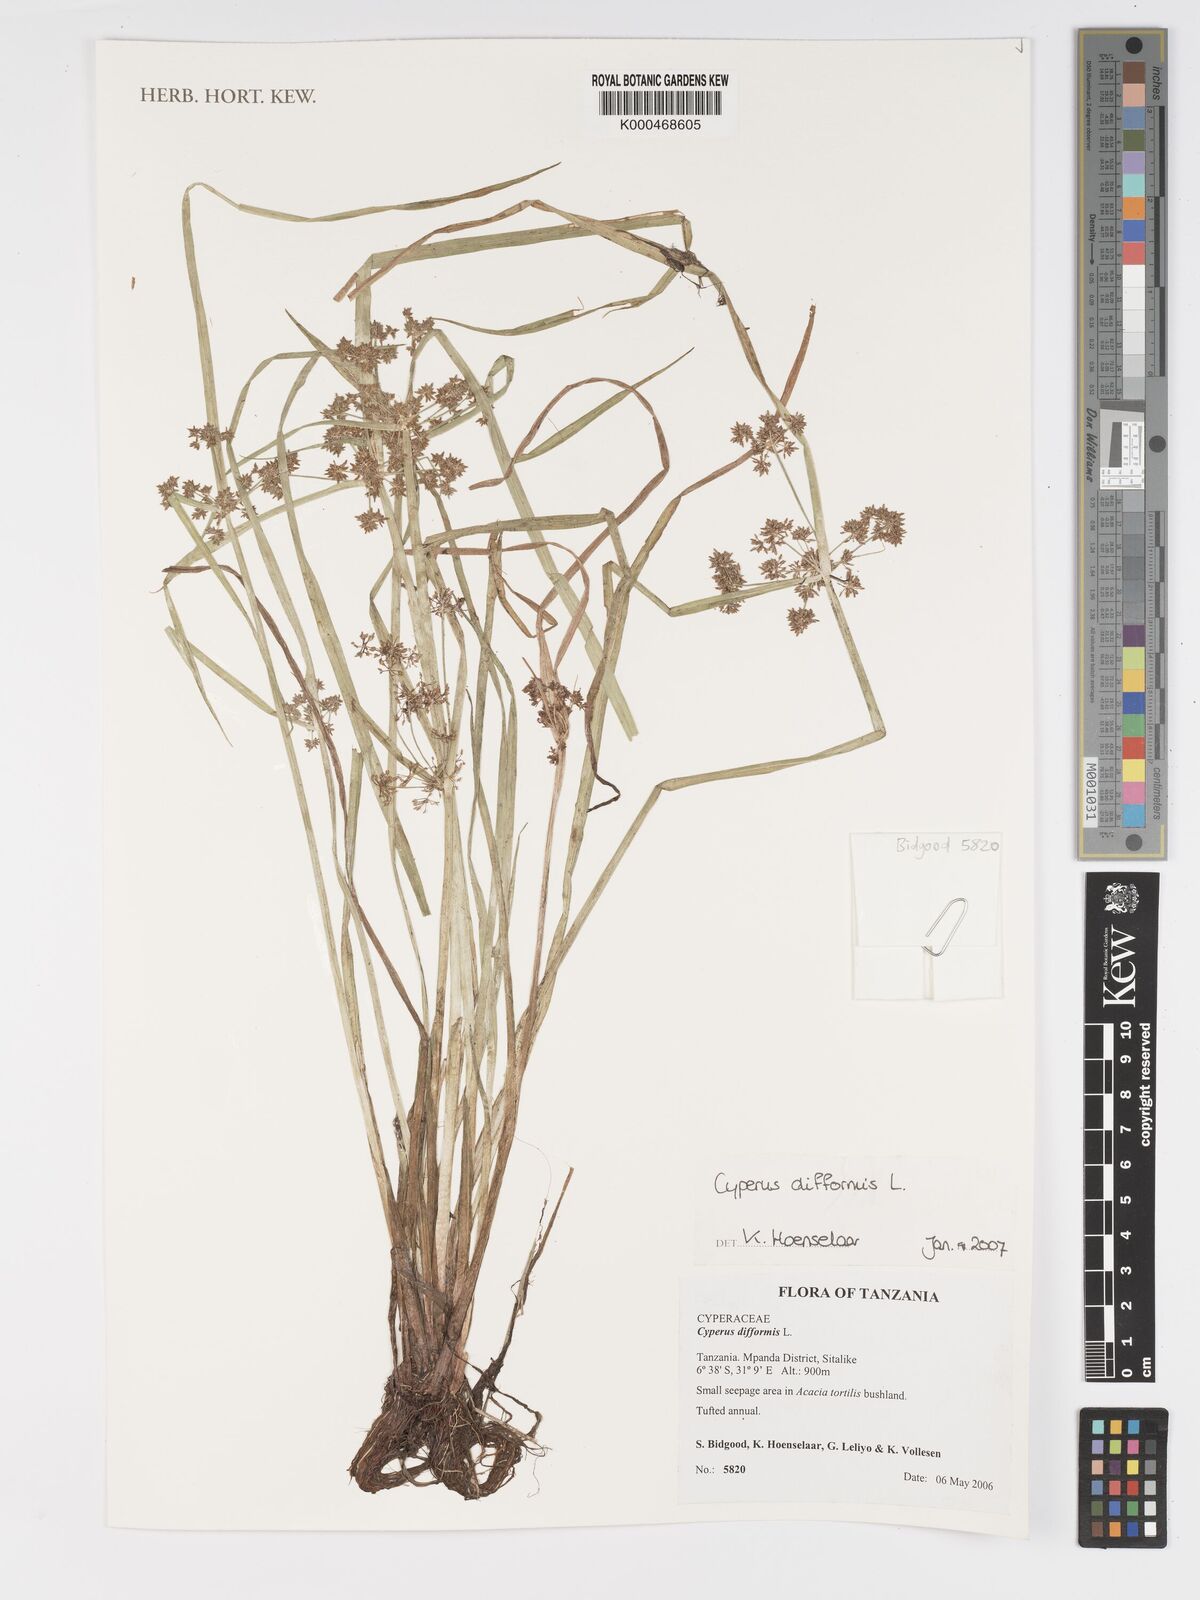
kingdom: Plantae
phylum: Tracheophyta
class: Liliopsida
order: Poales
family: Cyperaceae
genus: Cyperus
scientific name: Cyperus difformis
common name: Variable flatsedge
